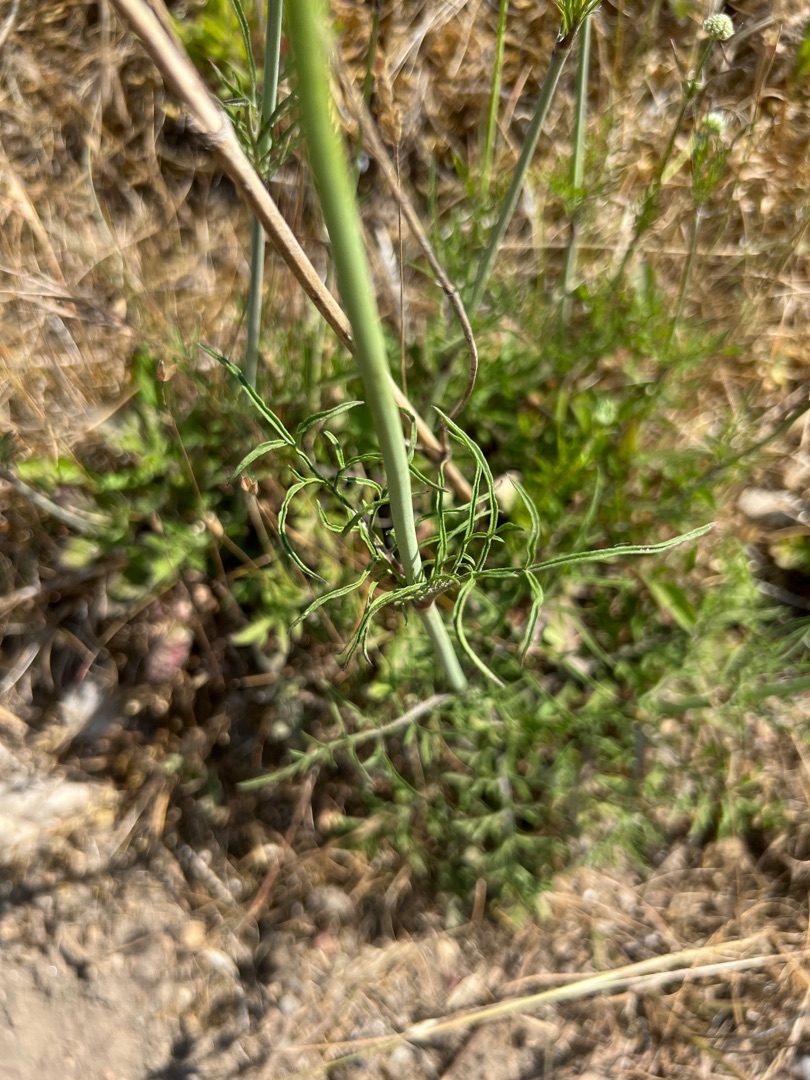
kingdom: Plantae
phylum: Tracheophyta
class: Magnoliopsida
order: Dipsacales
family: Caprifoliaceae
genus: Scabiosa
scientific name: Scabiosa columbaria
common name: Due-skabiose
